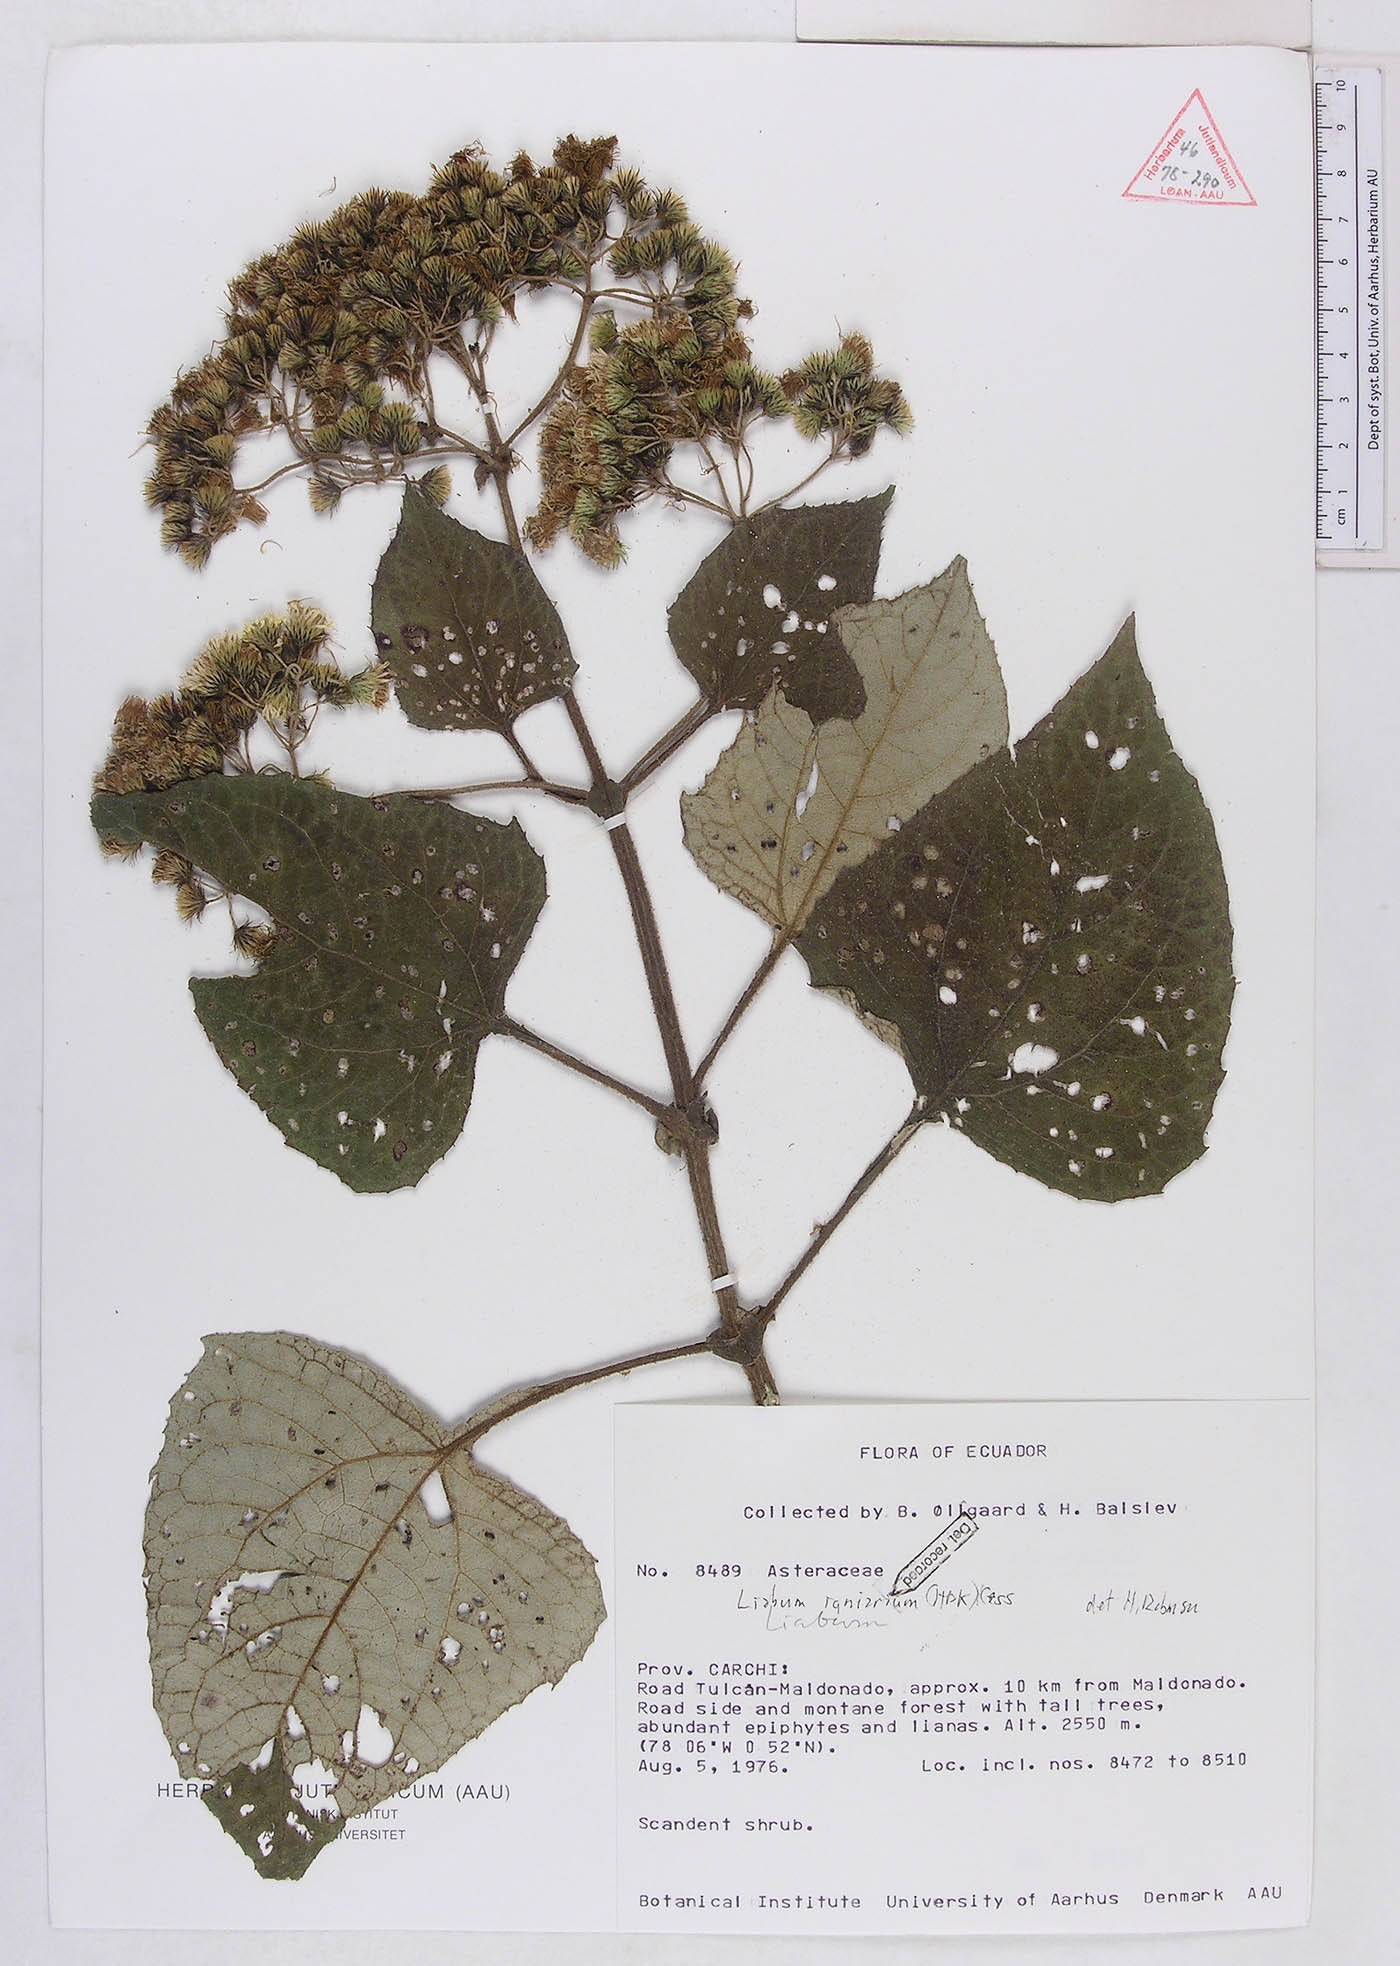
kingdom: Plantae
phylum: Tracheophyta
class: Magnoliopsida
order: Asterales
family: Asteraceae
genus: Liabum
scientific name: Liabum igniarium
